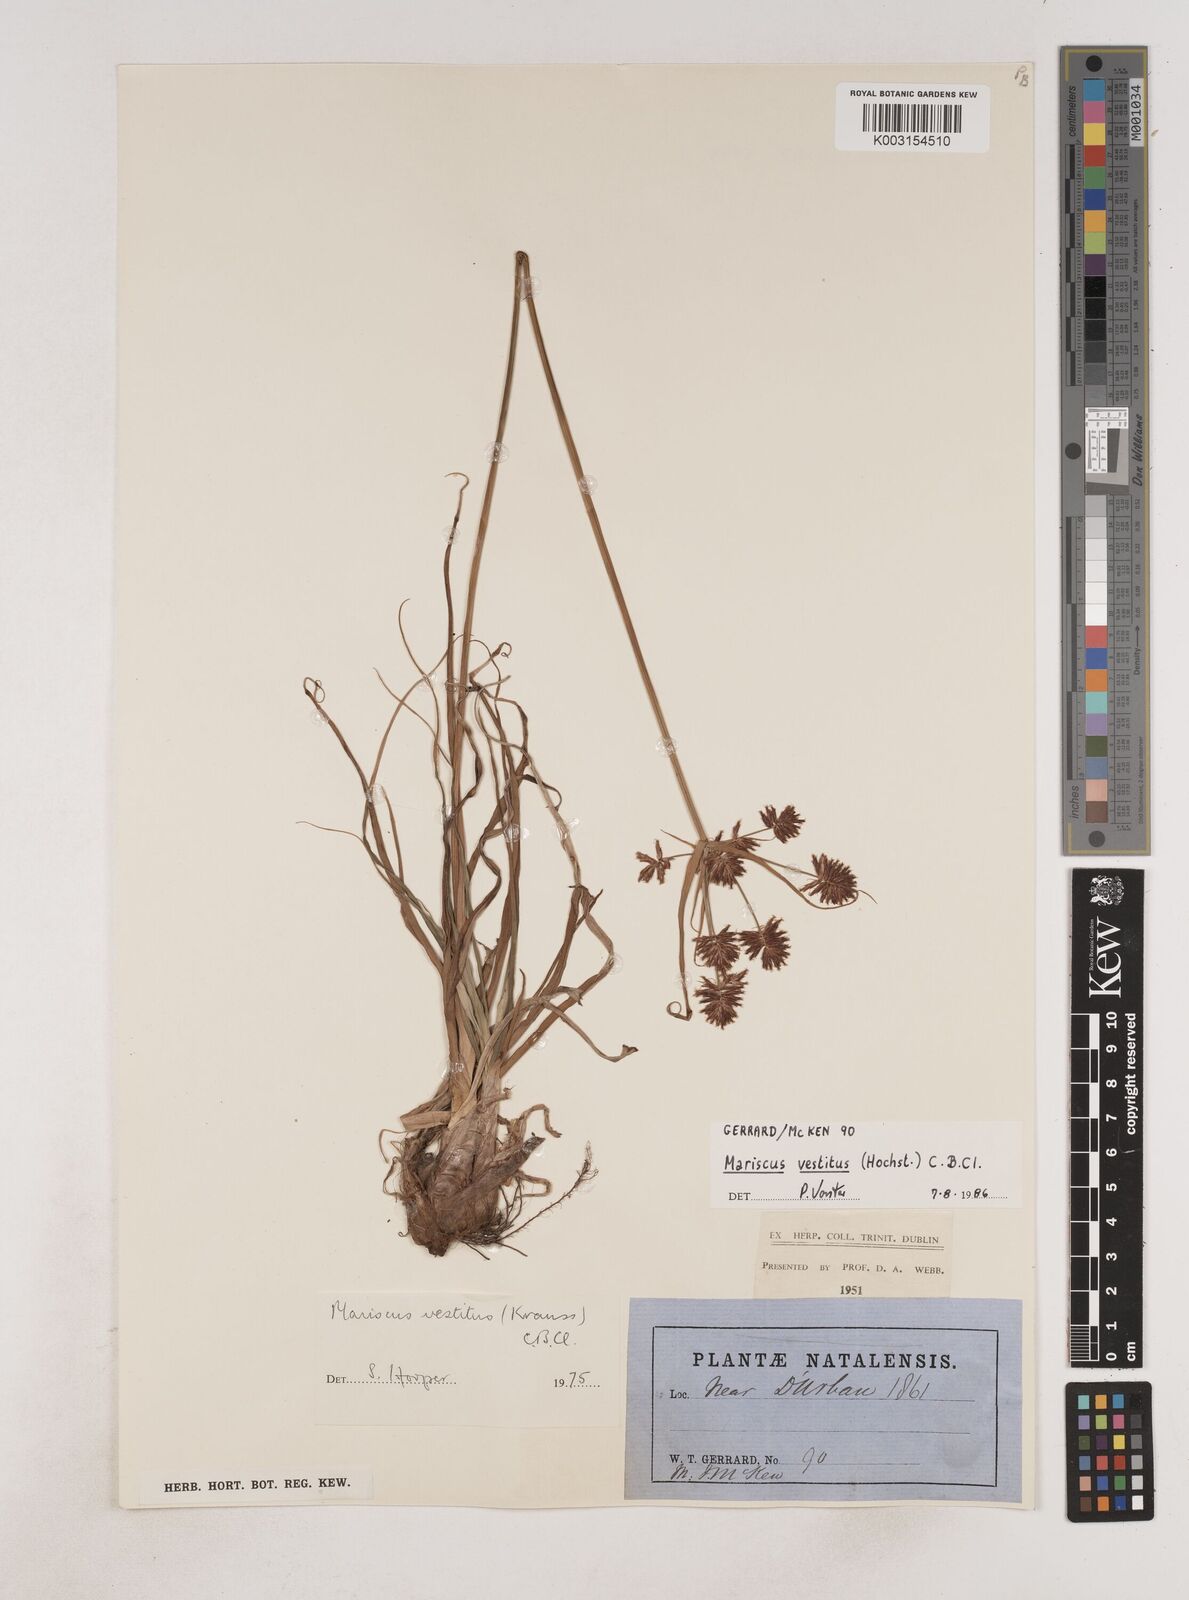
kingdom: Plantae
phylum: Tracheophyta
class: Liliopsida
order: Poales
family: Cyperaceae
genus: Cyperus
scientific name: Cyperus vestitus
